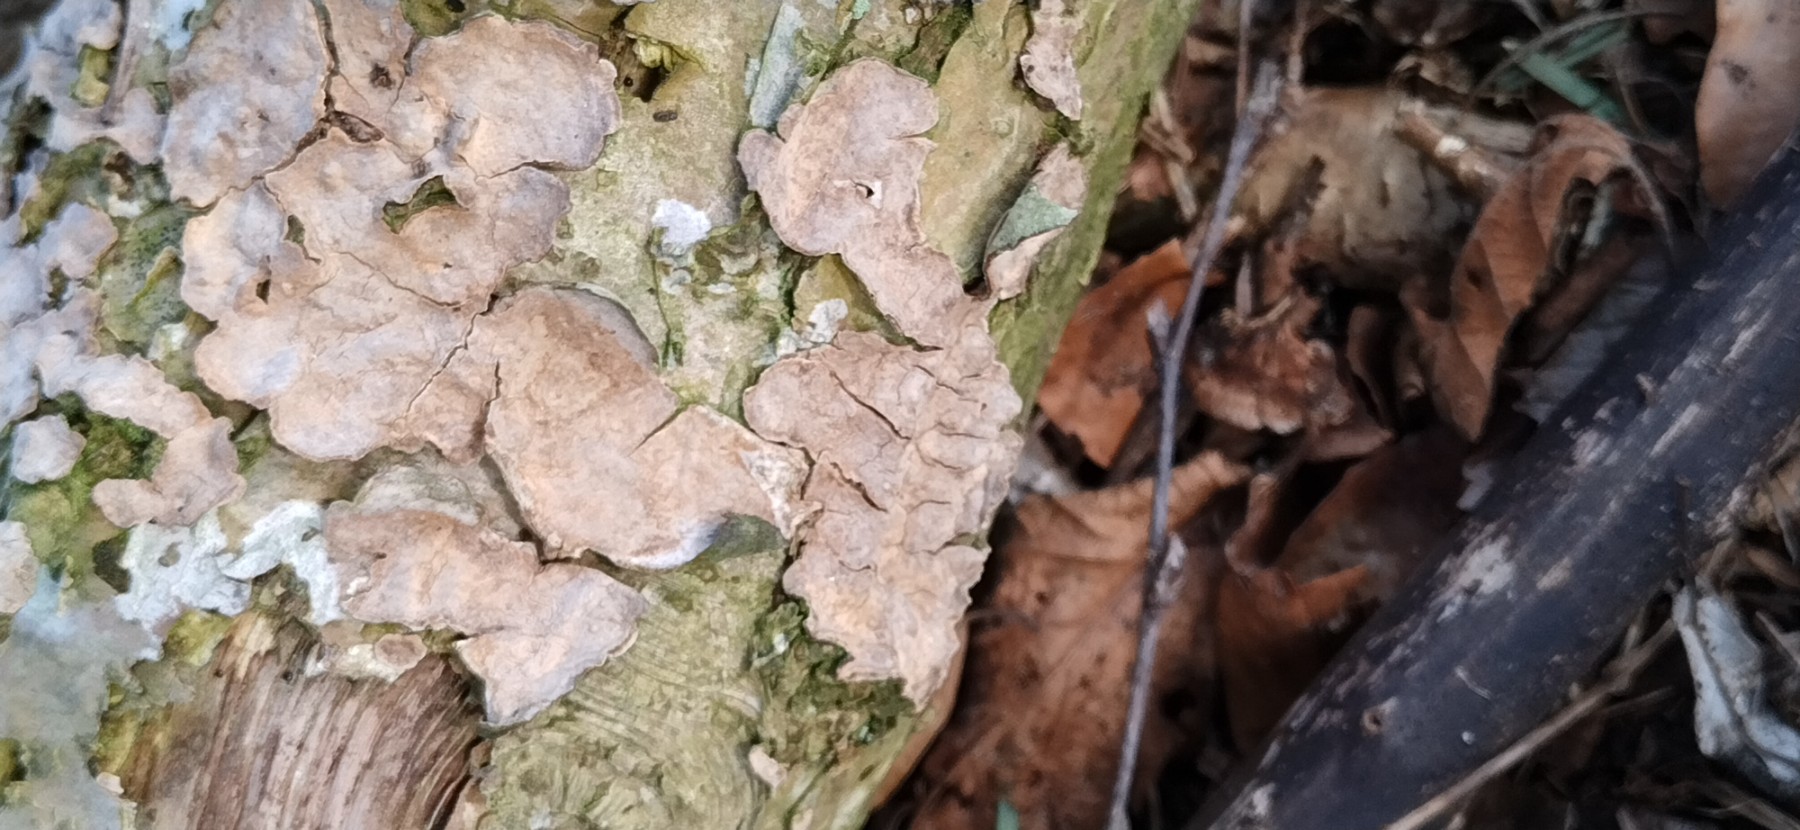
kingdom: Fungi
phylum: Basidiomycota
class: Agaricomycetes
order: Russulales
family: Stereaceae
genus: Stereum
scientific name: Stereum rugosum
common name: rynket lædersvamp
